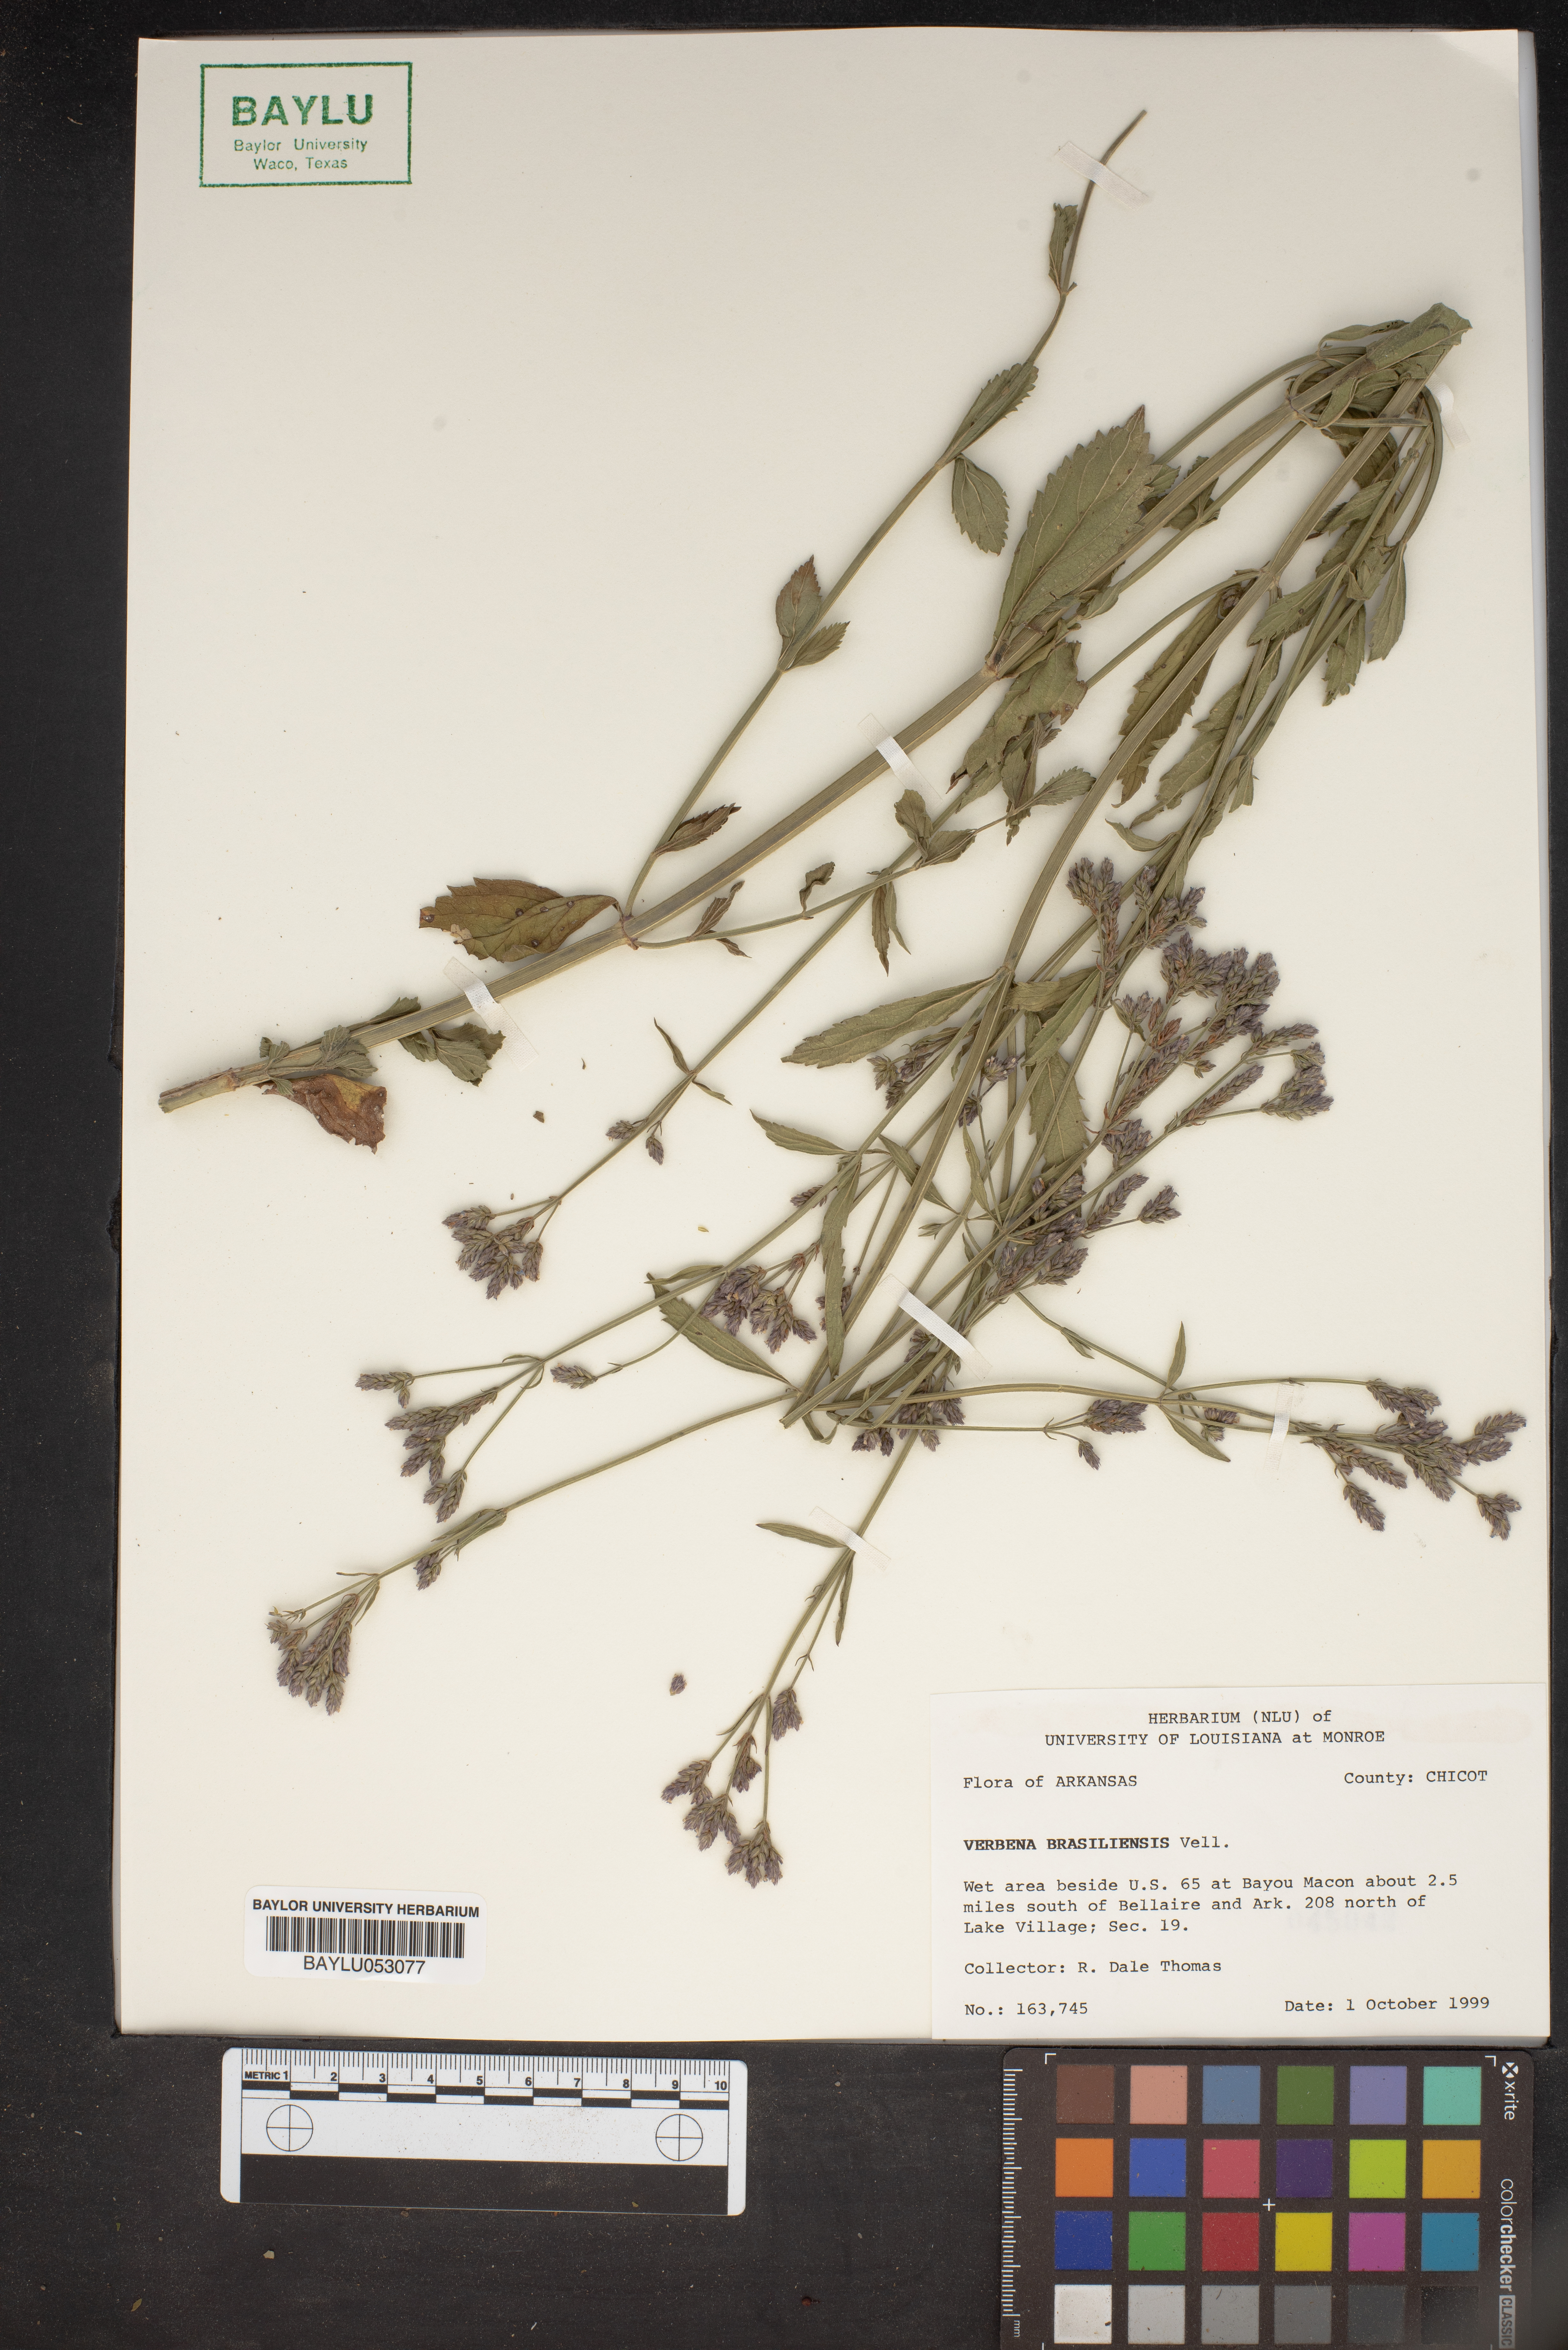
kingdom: Plantae
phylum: Tracheophyta
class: Magnoliopsida
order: Lamiales
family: Verbenaceae
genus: Verbena
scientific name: Verbena brasiliensis
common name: Brazilian vervain
